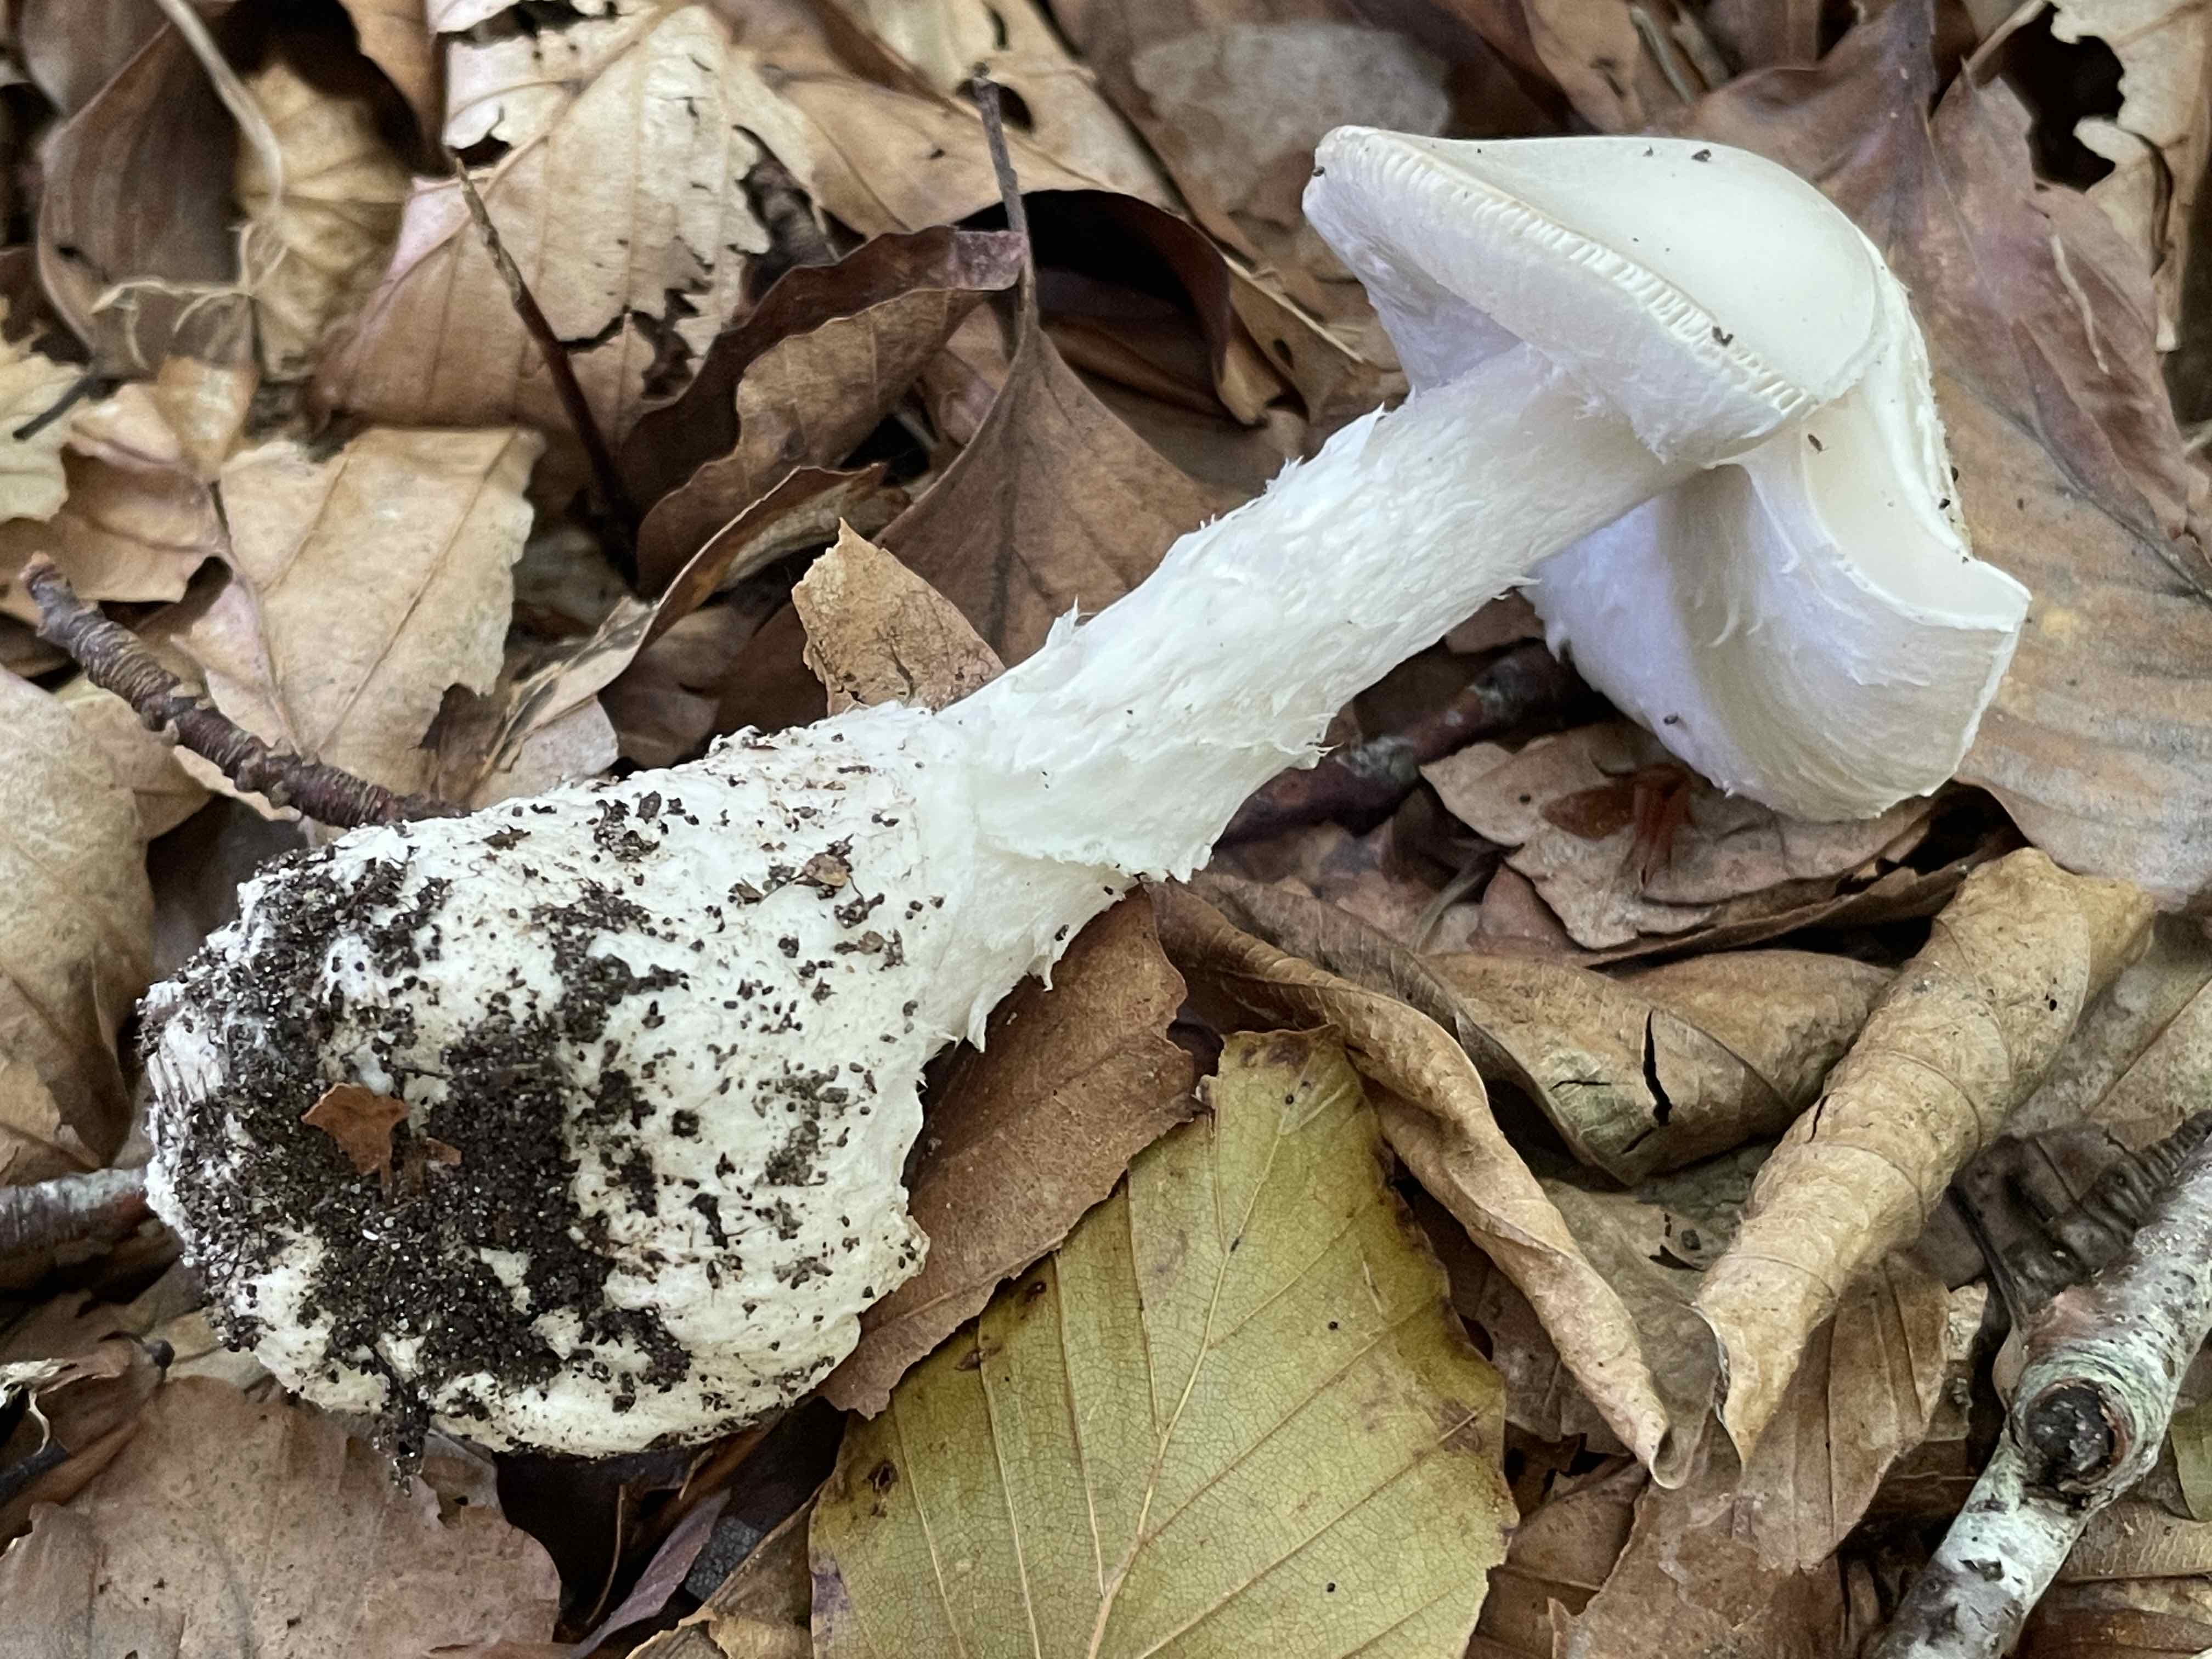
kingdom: Fungi
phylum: Basidiomycota
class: Agaricomycetes
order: Agaricales
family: Amanitaceae
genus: Amanita
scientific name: Amanita virosa
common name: snehvid fluesvamp
